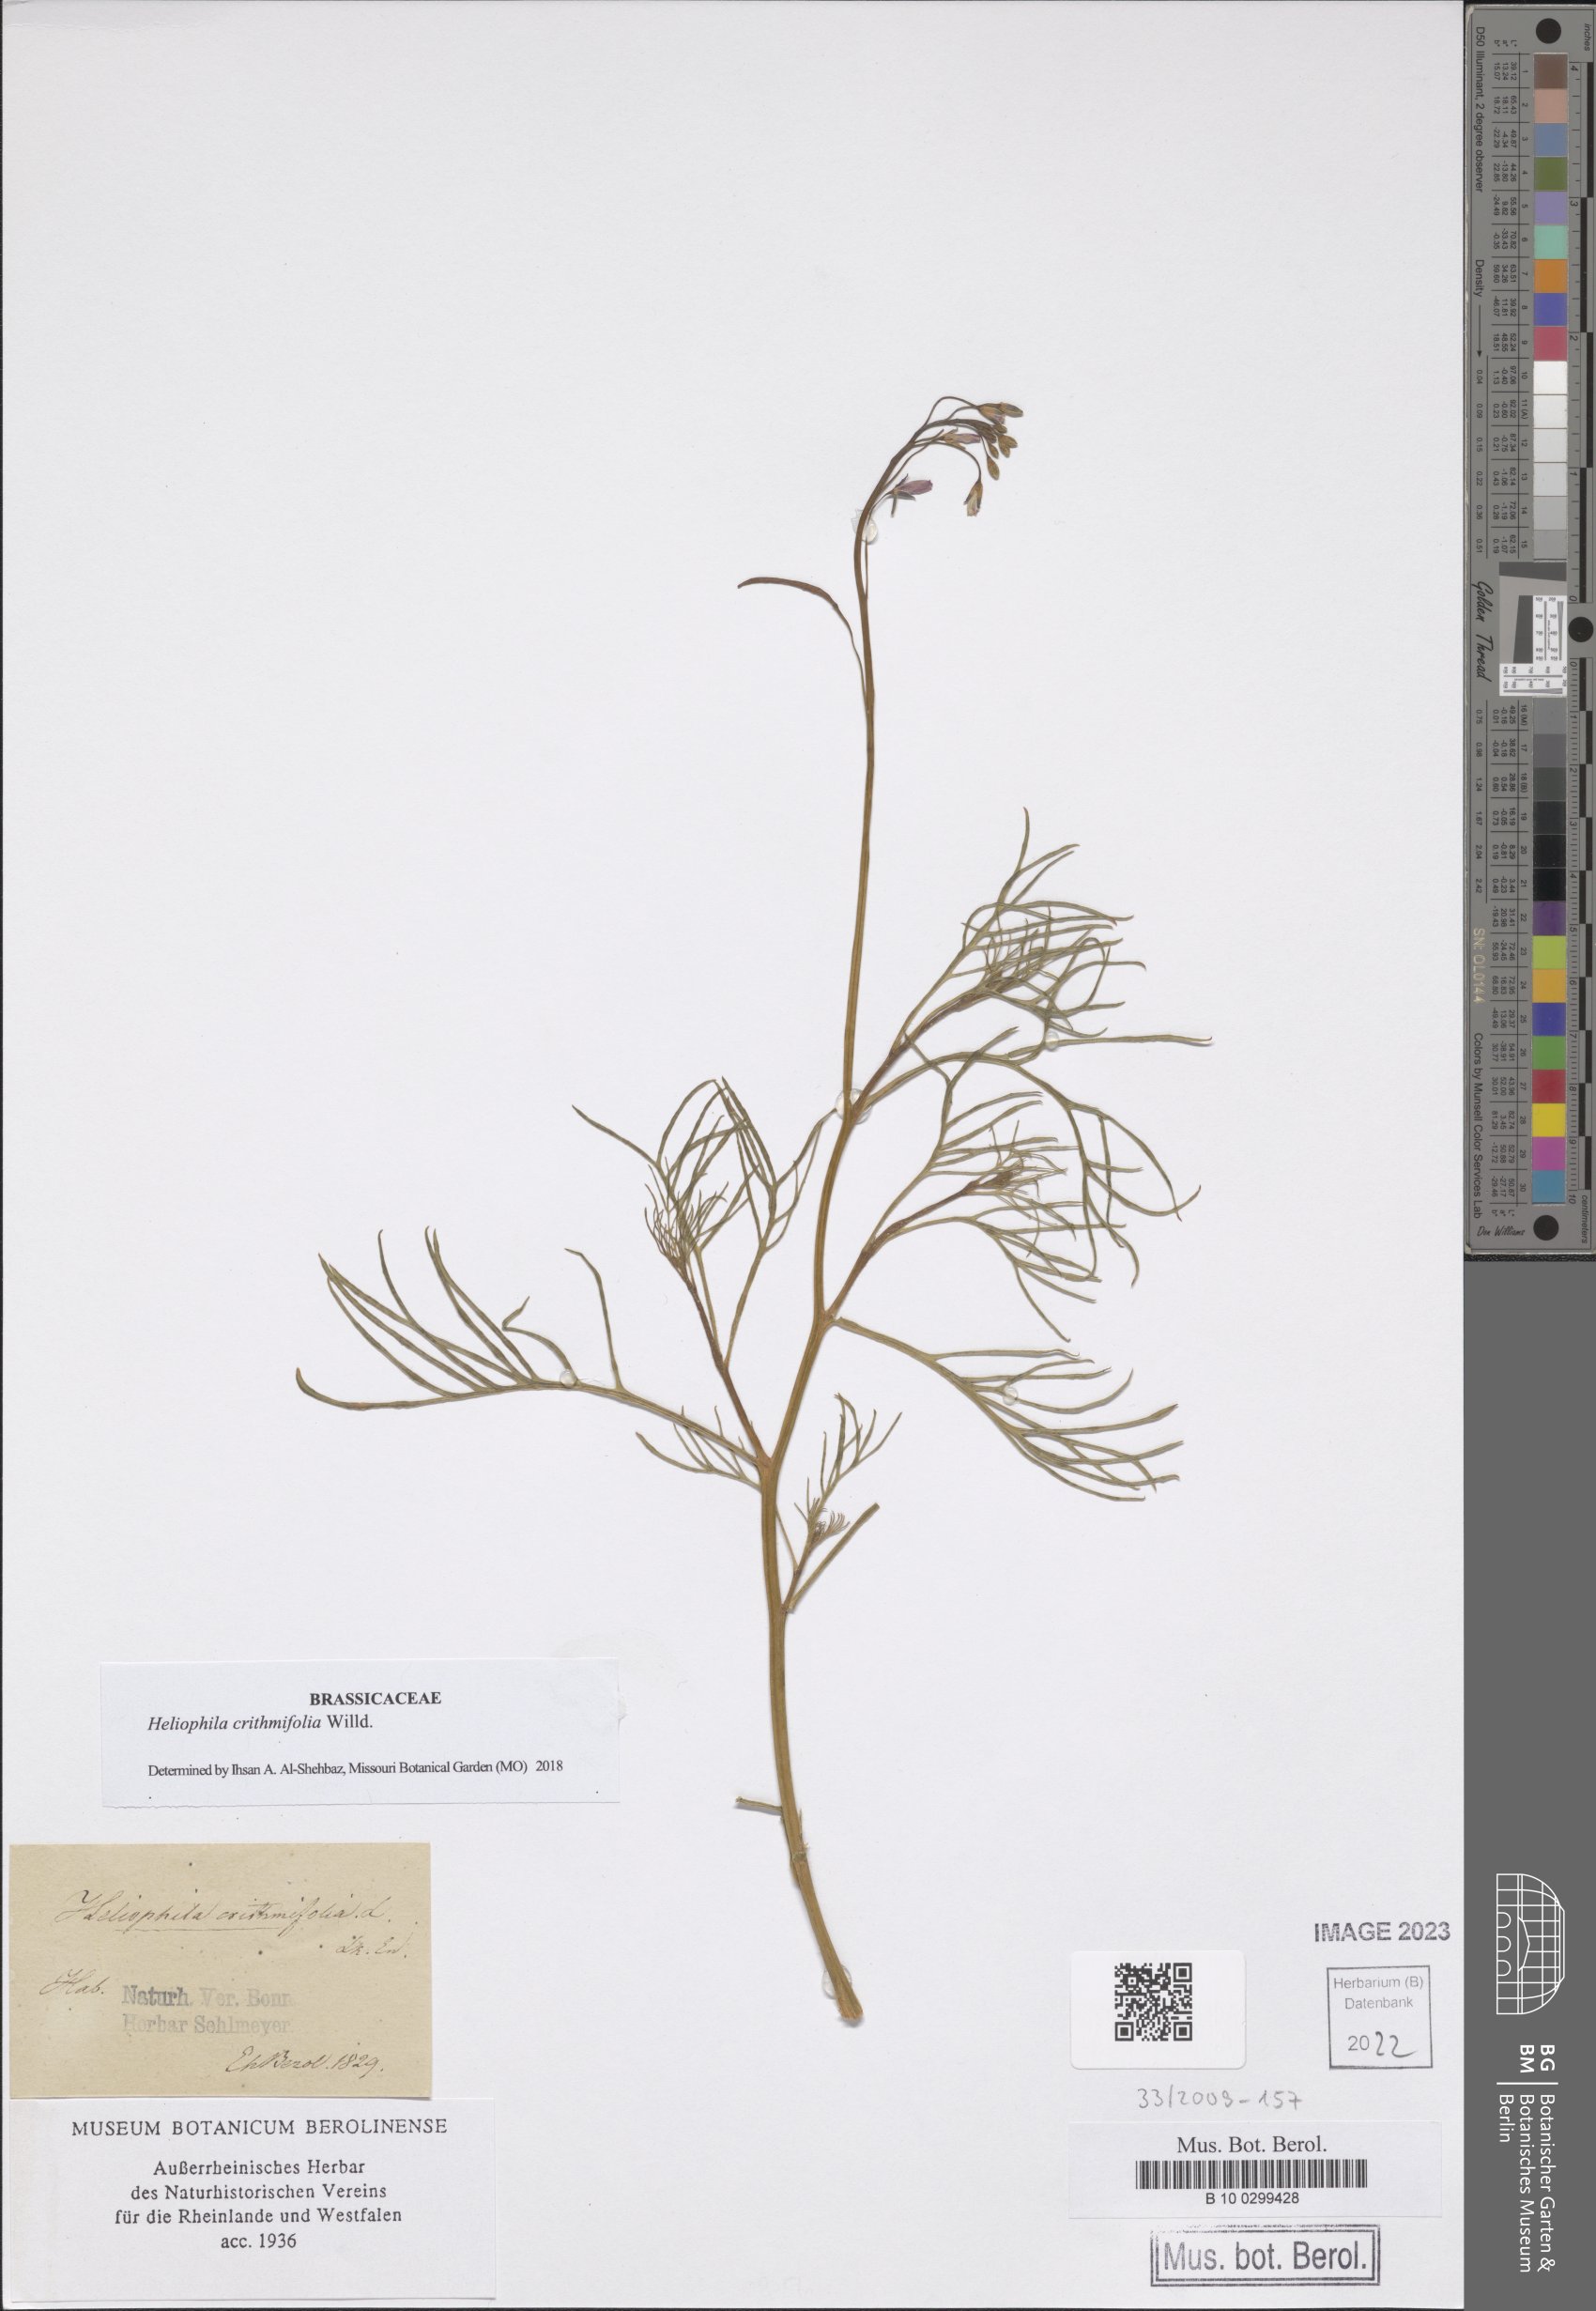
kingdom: Plantae
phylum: Tracheophyta
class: Magnoliopsida
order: Brassicales
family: Brassicaceae
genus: Heliophila
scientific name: Heliophila crithmifolia
